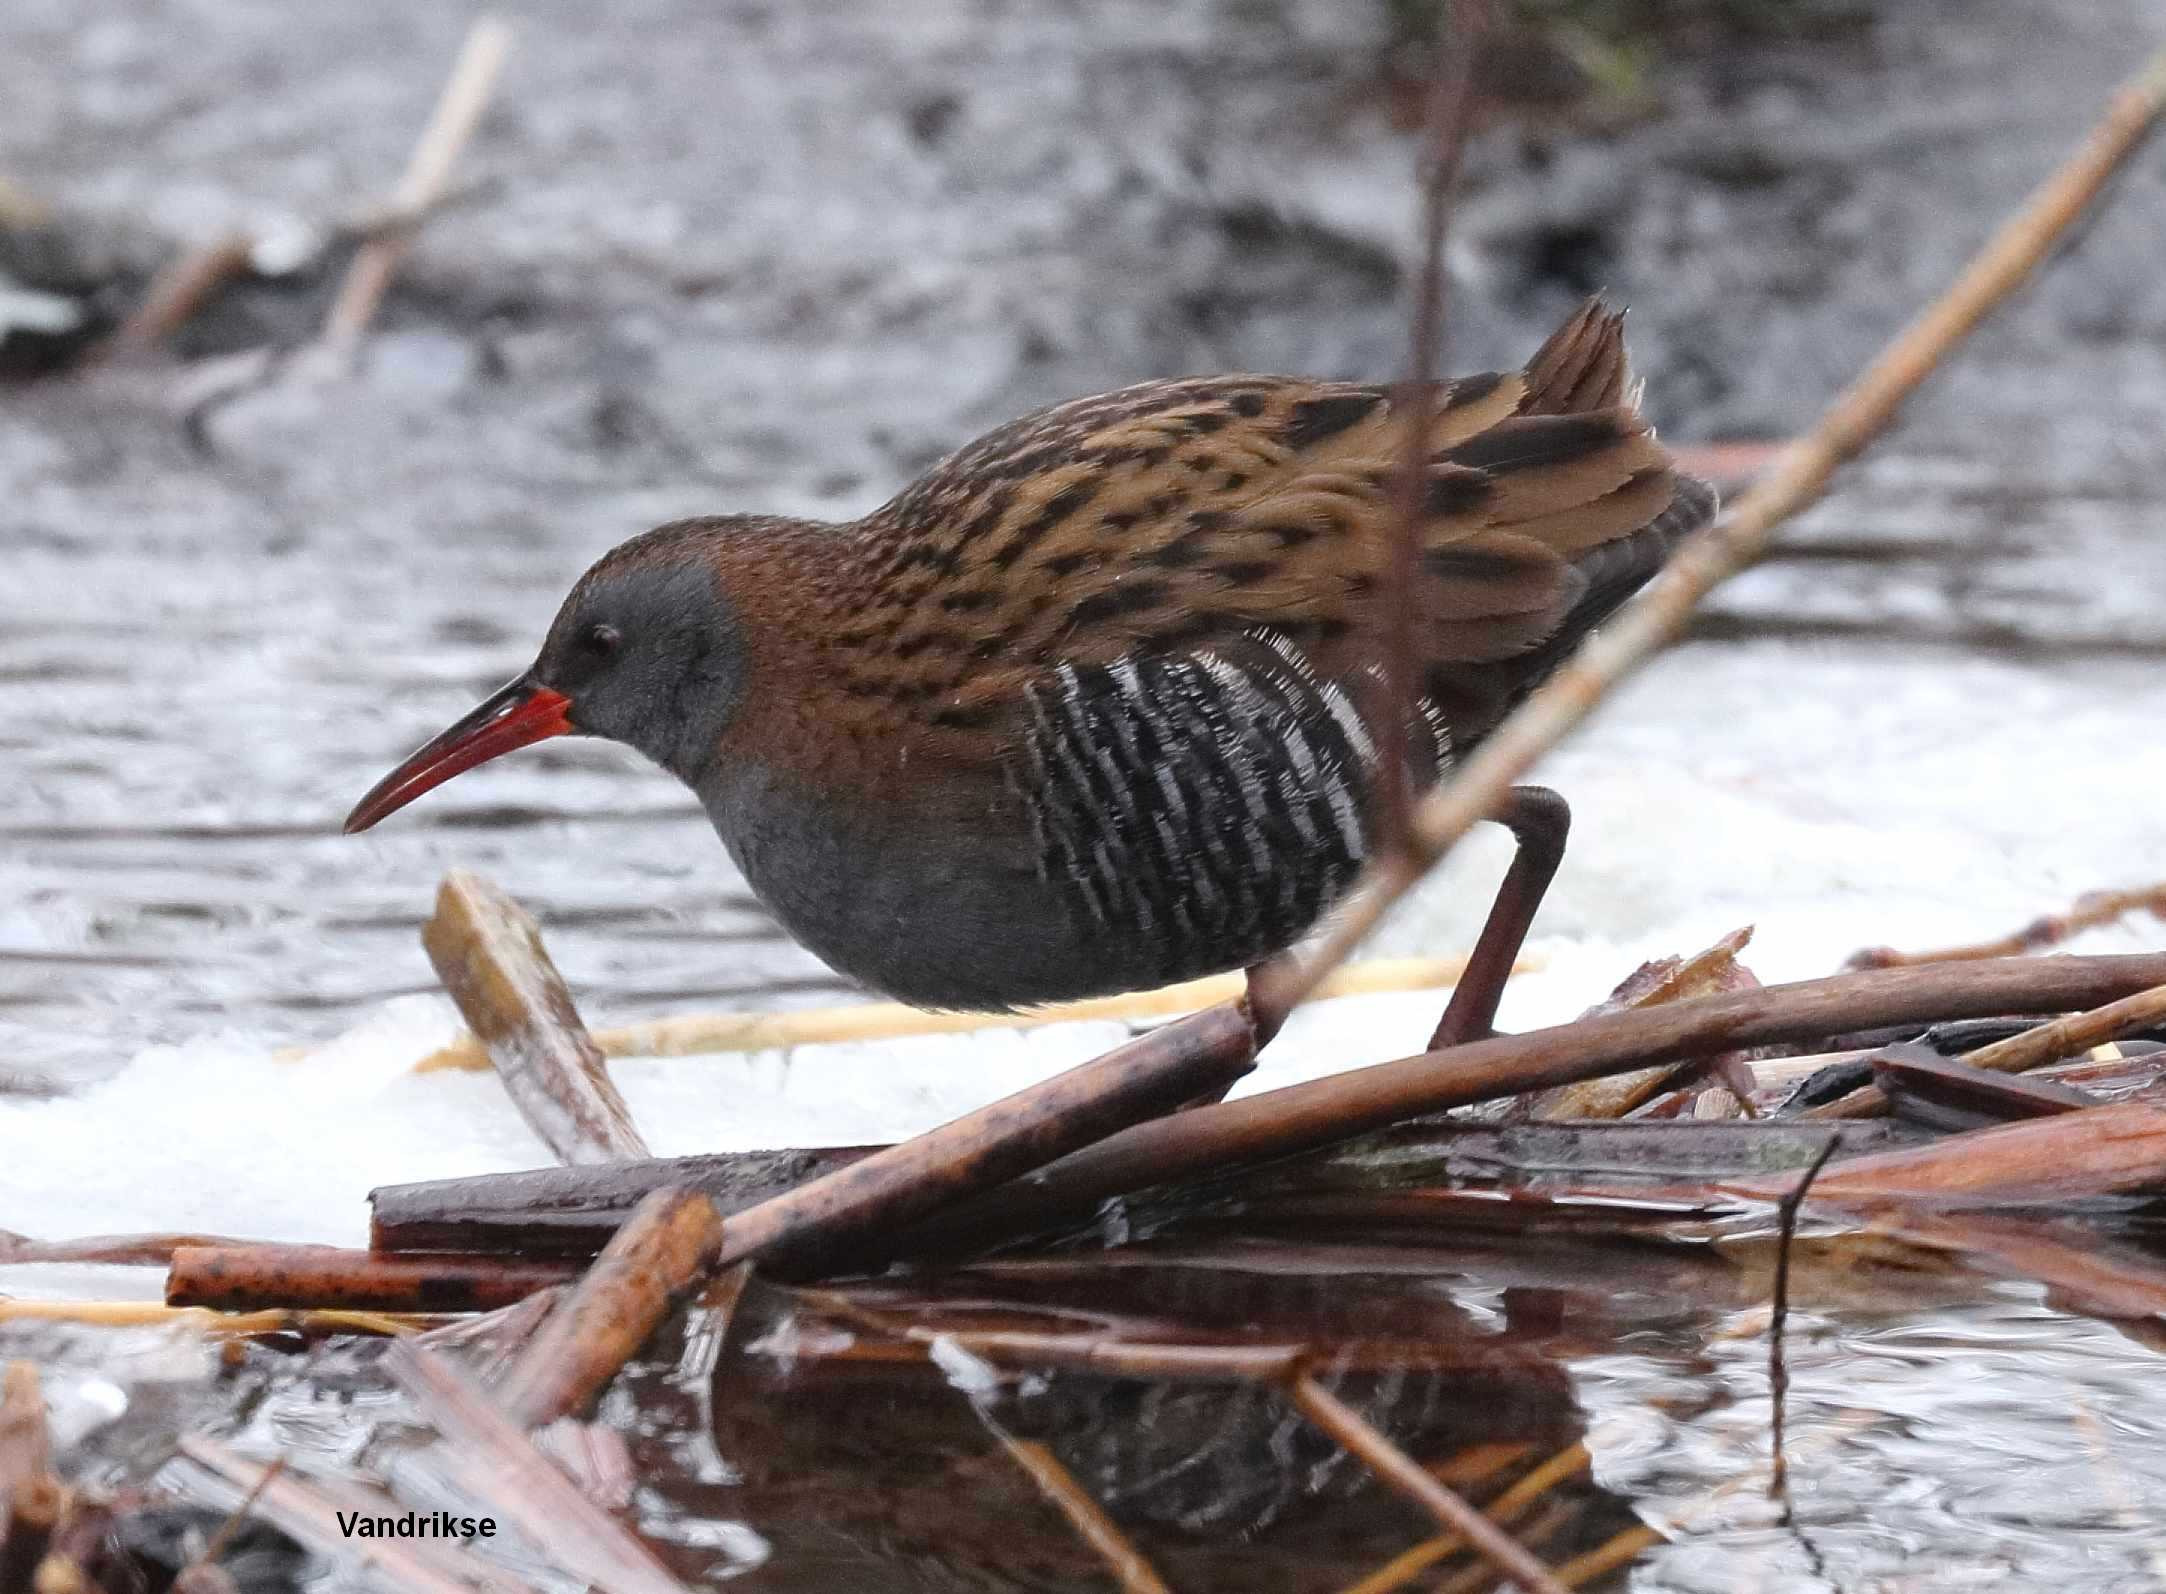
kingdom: Animalia
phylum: Chordata
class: Aves
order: Gruiformes
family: Rallidae
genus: Rallus
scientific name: Rallus aquaticus
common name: Vandrikse
